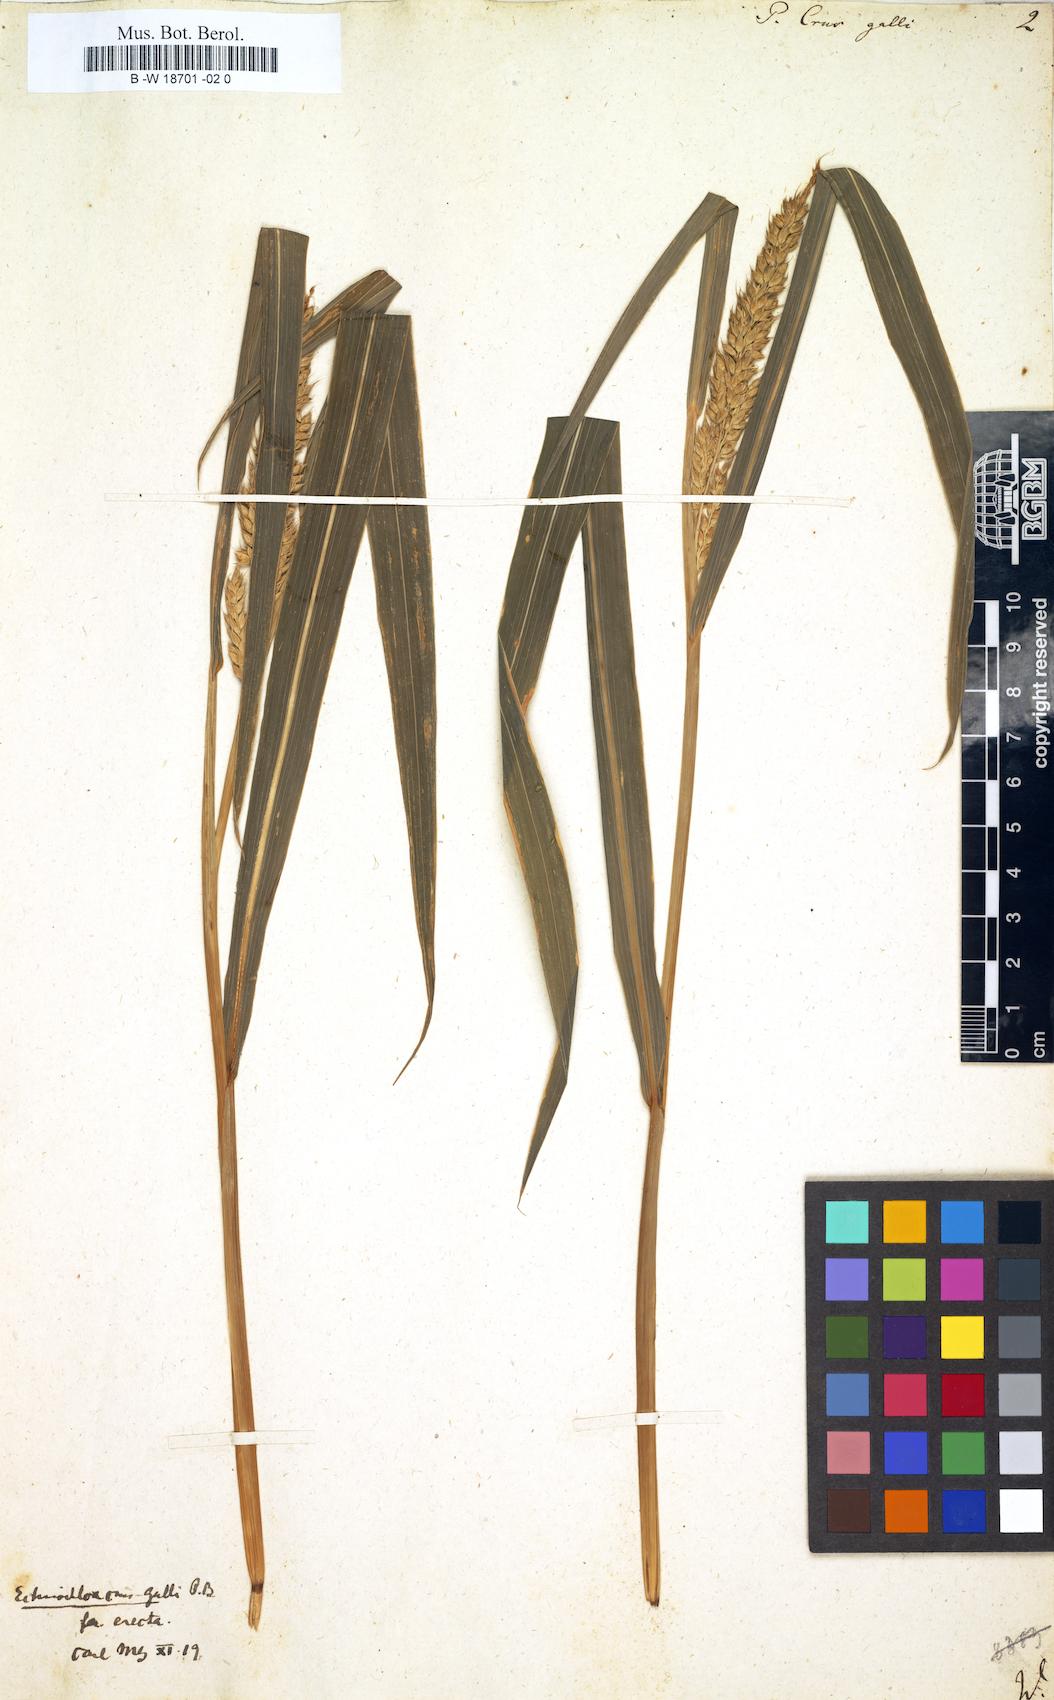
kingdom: Plantae
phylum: Tracheophyta
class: Liliopsida
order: Poales
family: Poaceae
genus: Echinochloa
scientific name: Echinochloa crus-galli
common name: Cockspur
